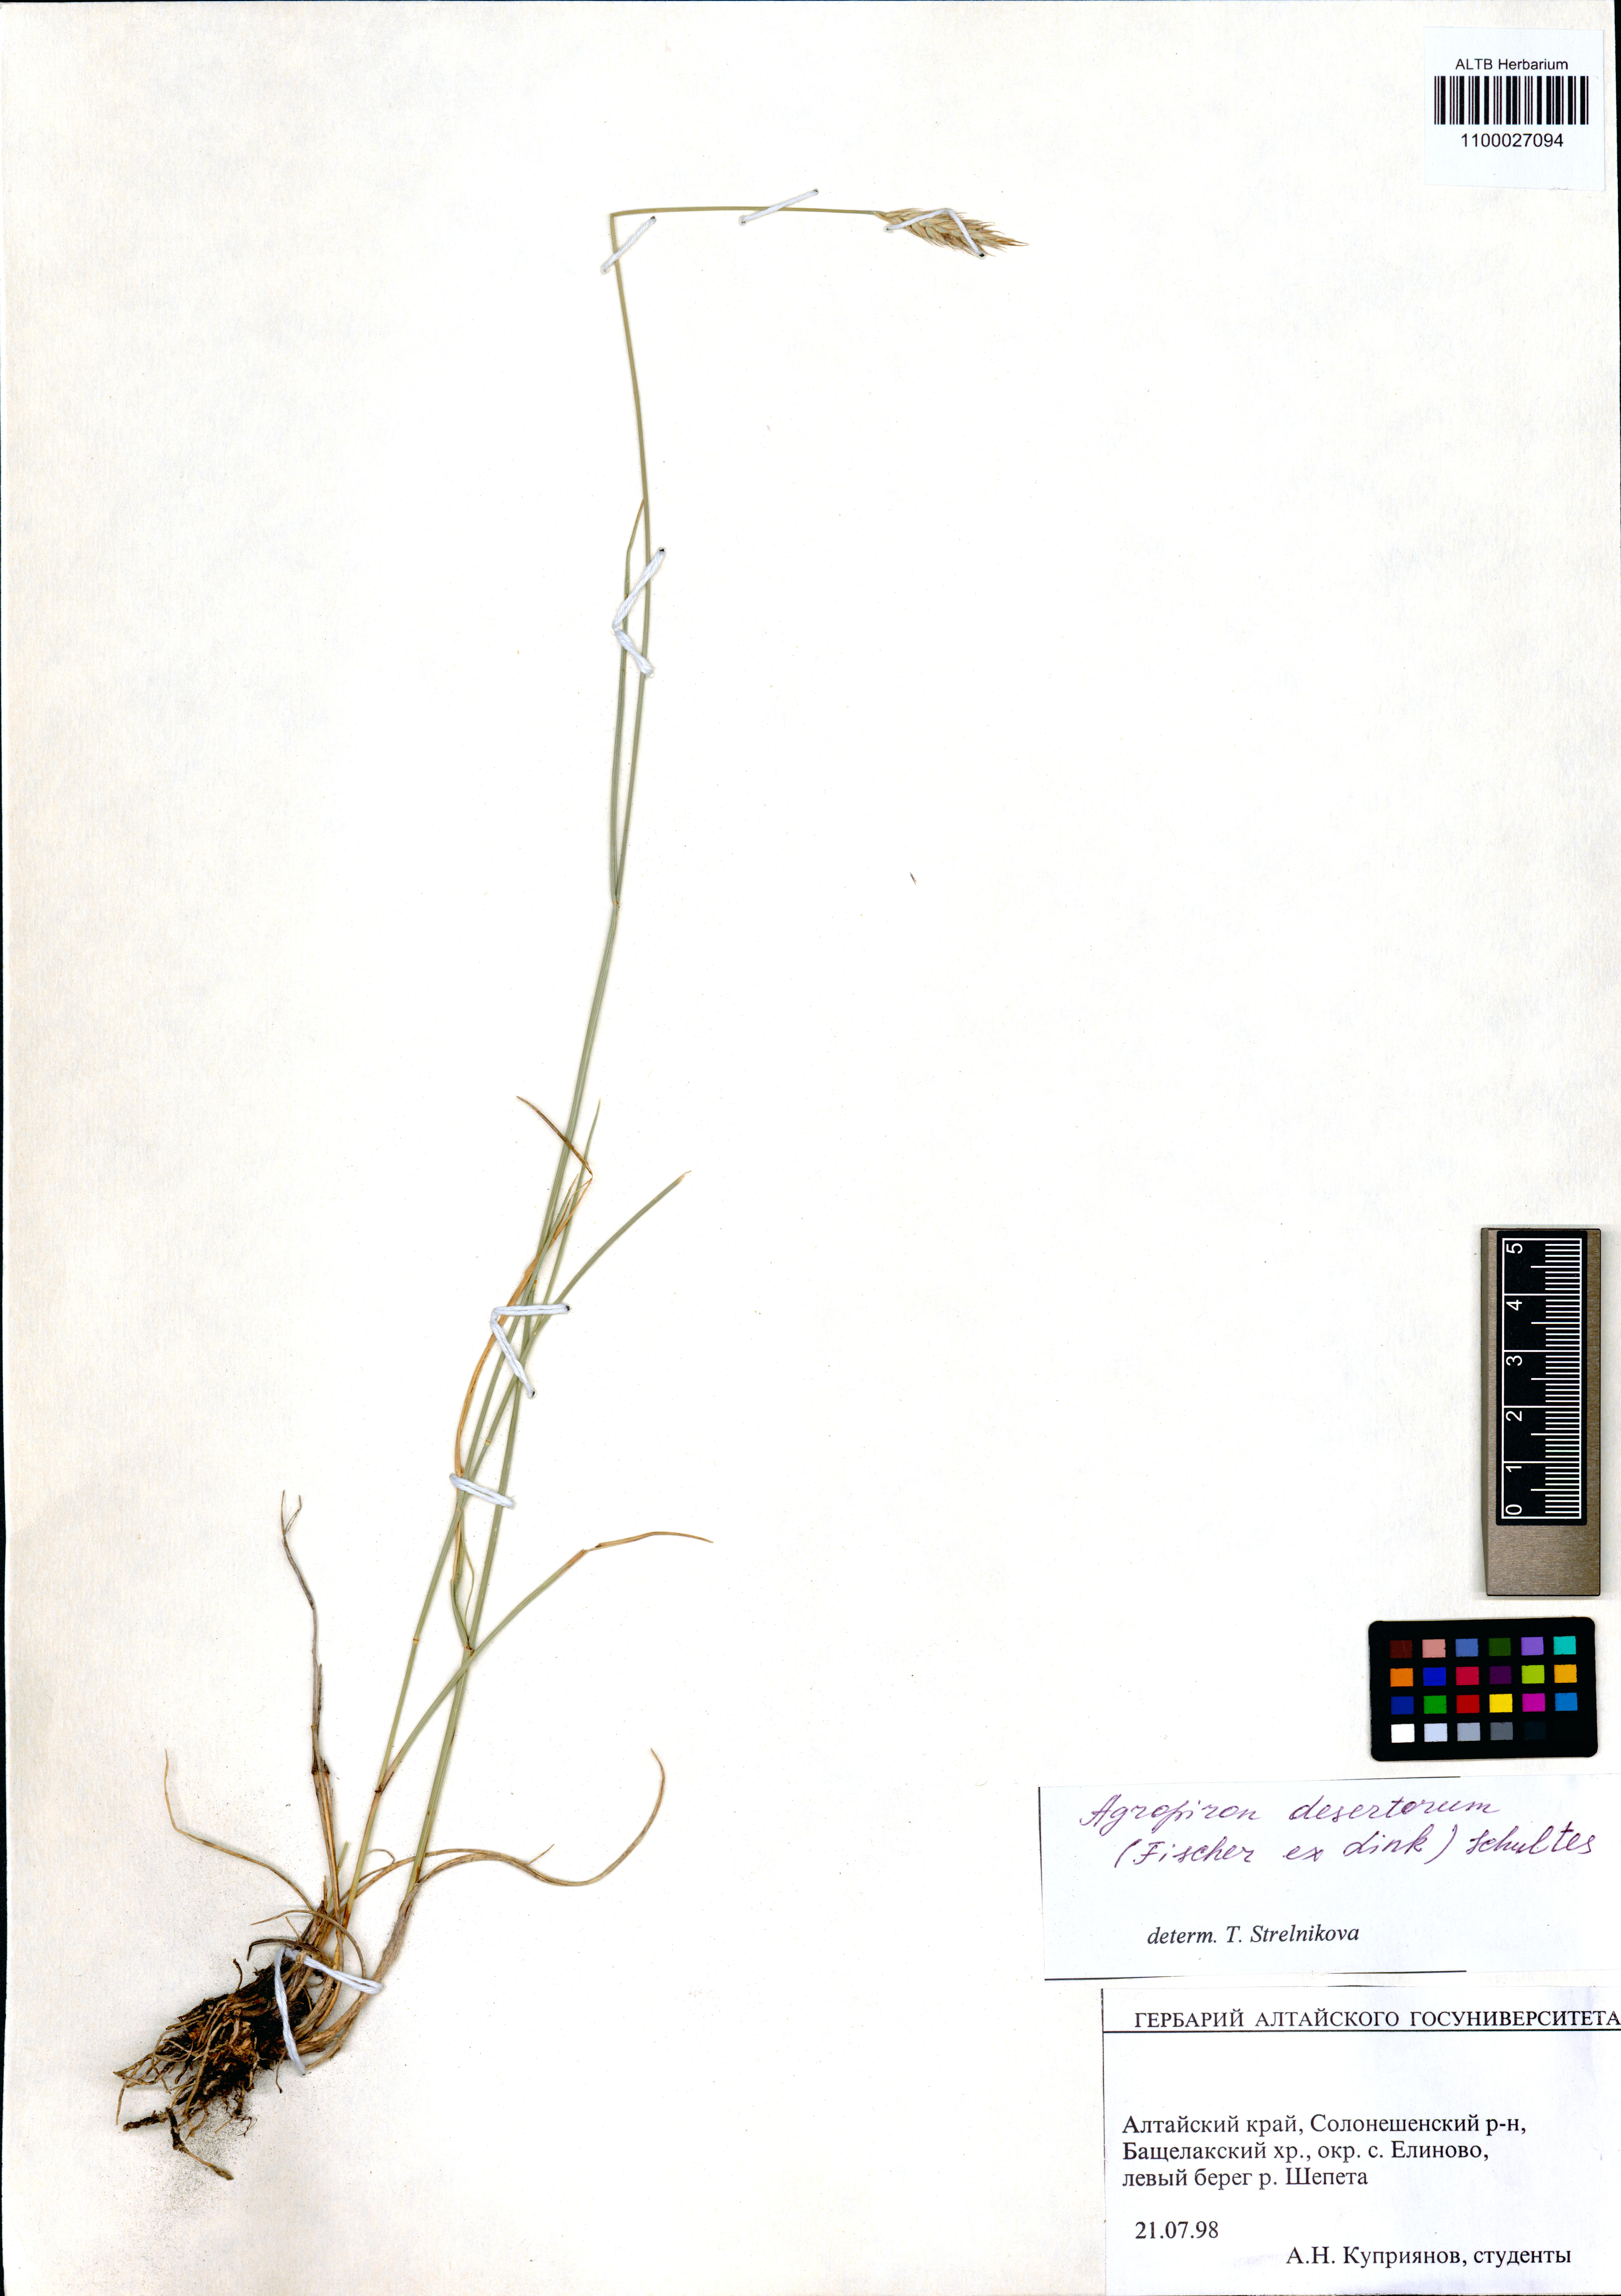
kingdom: Plantae
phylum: Tracheophyta
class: Liliopsida
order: Poales
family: Poaceae
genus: Agropyron
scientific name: Agropyron desertorum
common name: Desert wheatgrass
